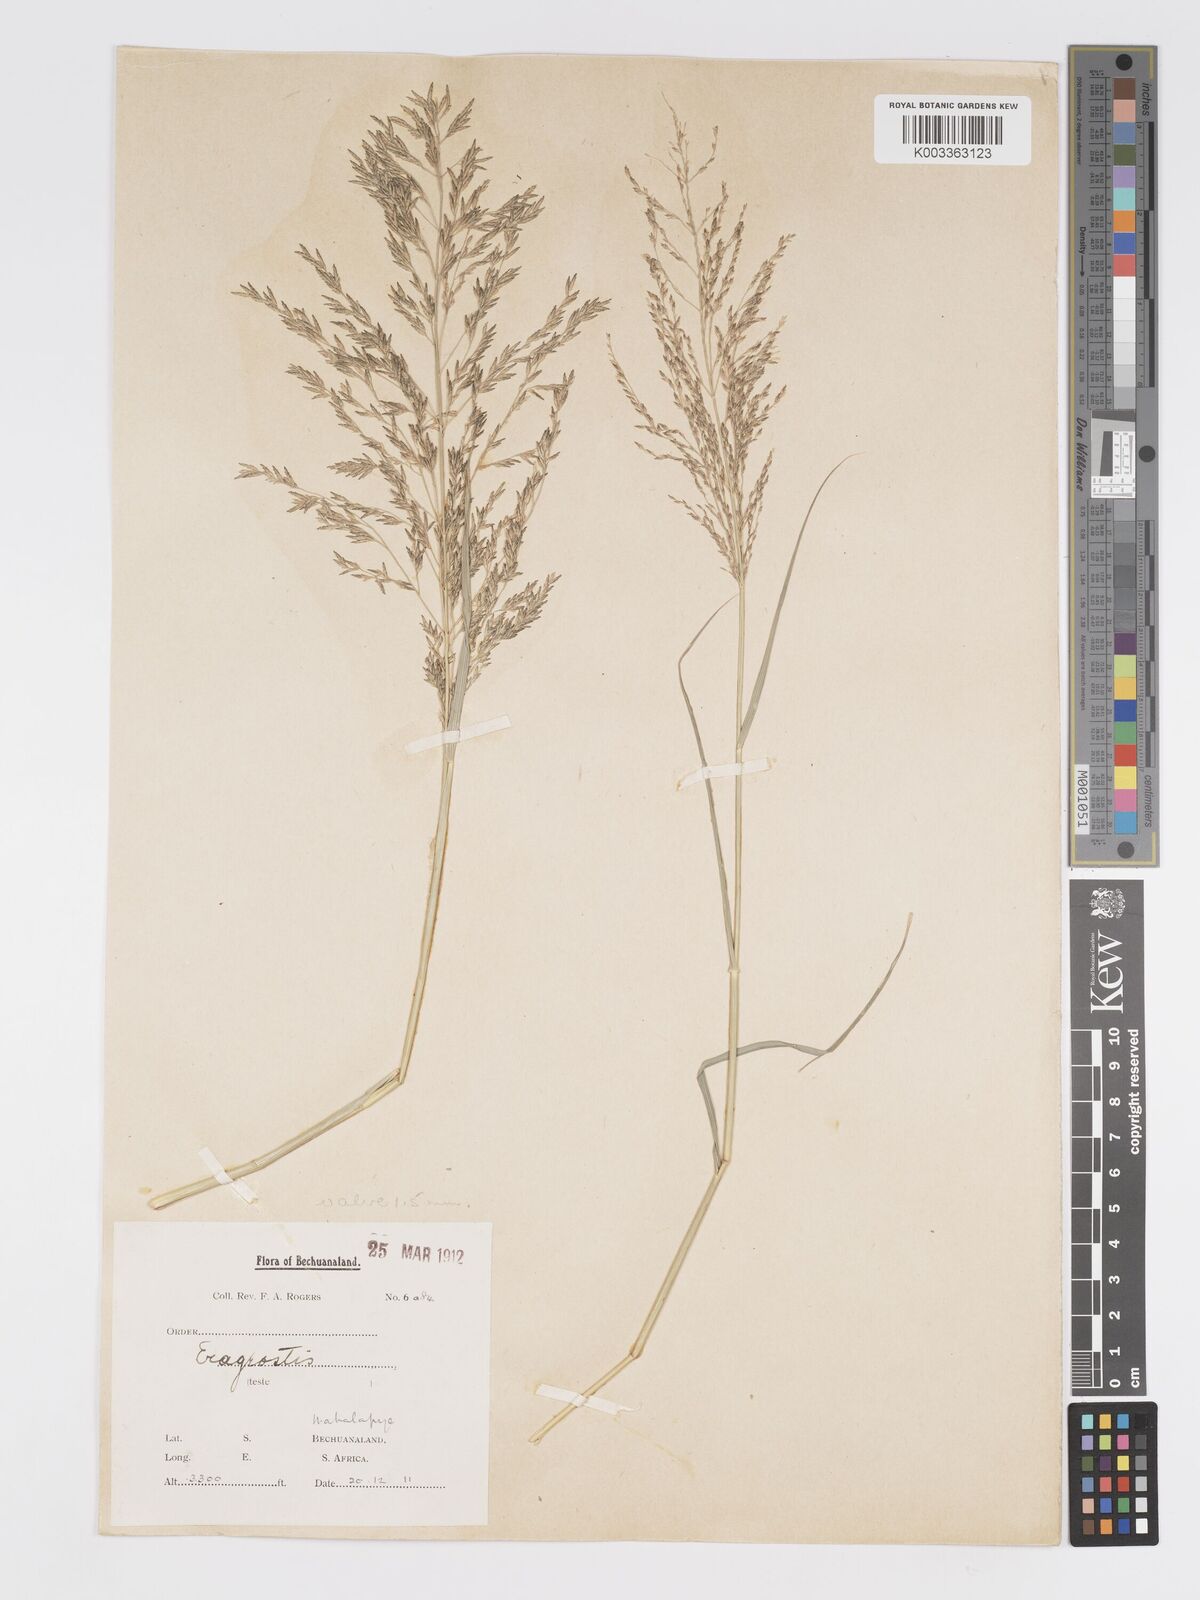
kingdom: Plantae
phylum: Tracheophyta
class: Liliopsida
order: Poales
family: Poaceae
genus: Eragrostis
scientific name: Eragrostis cylindriflora
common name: Cylinderflower lovegrass
